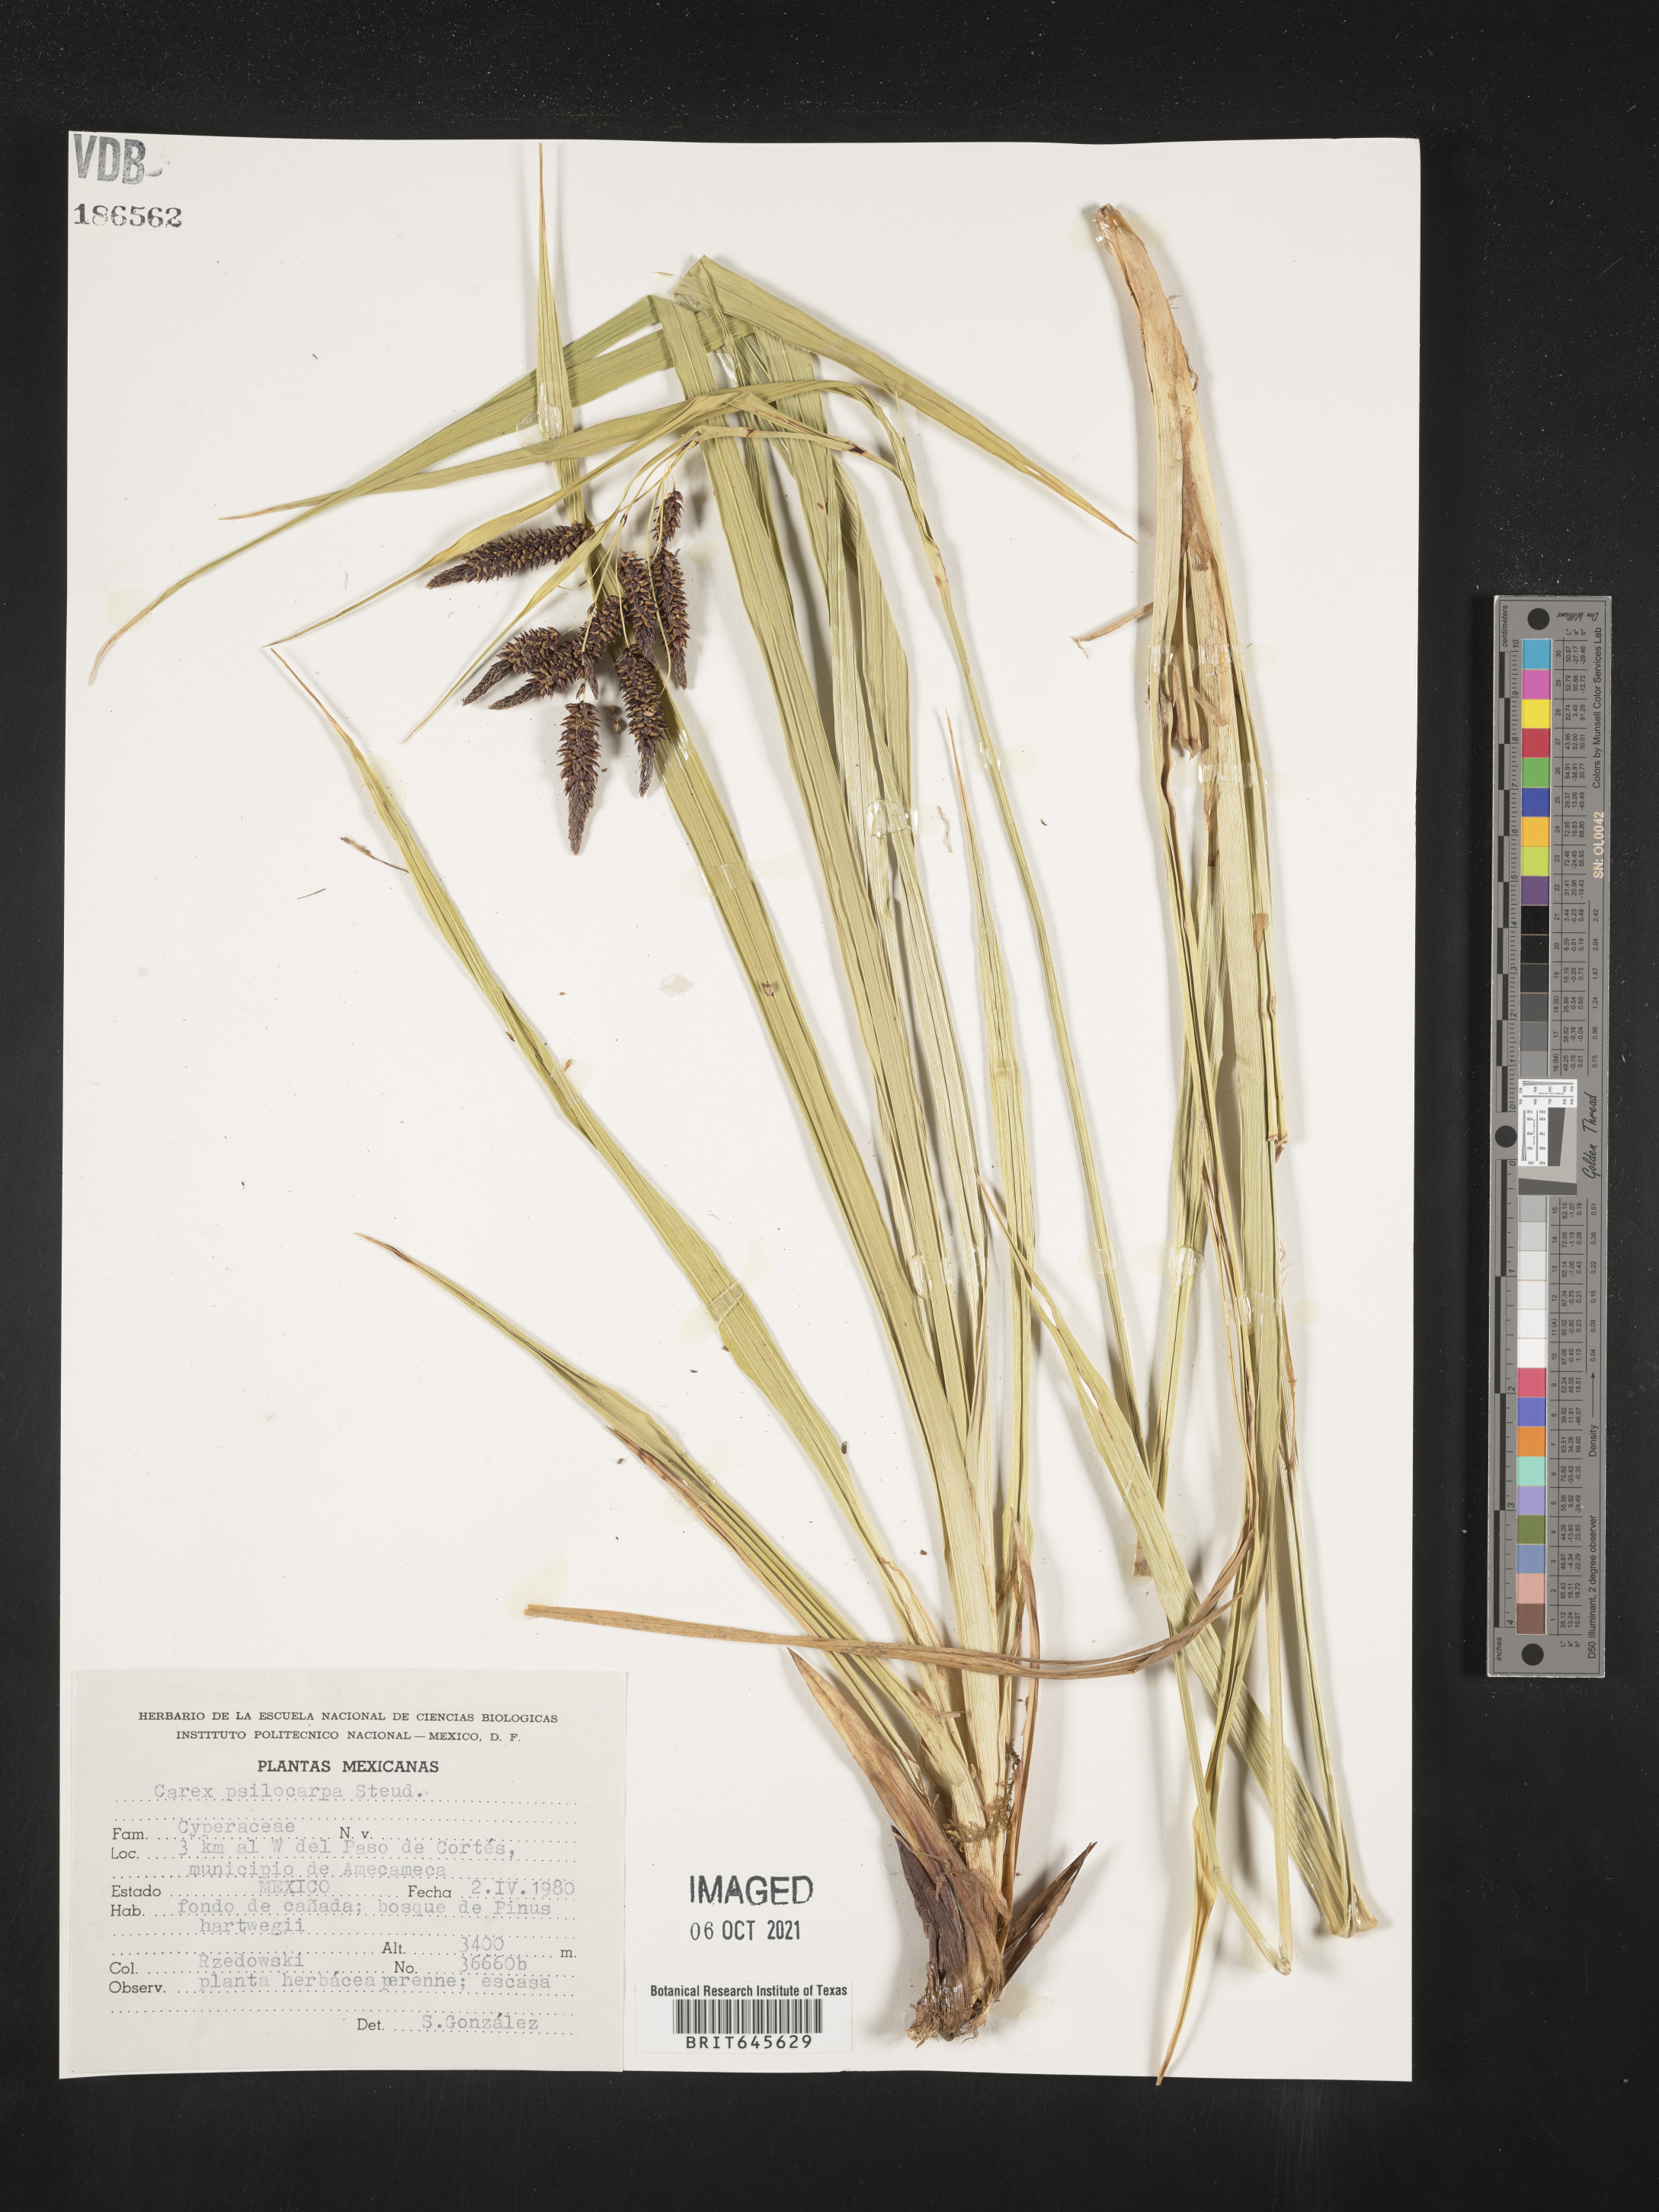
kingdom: Plantae
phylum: Tracheophyta
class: Liliopsida
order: Poales
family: Cyperaceae
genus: Carex
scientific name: Carex
